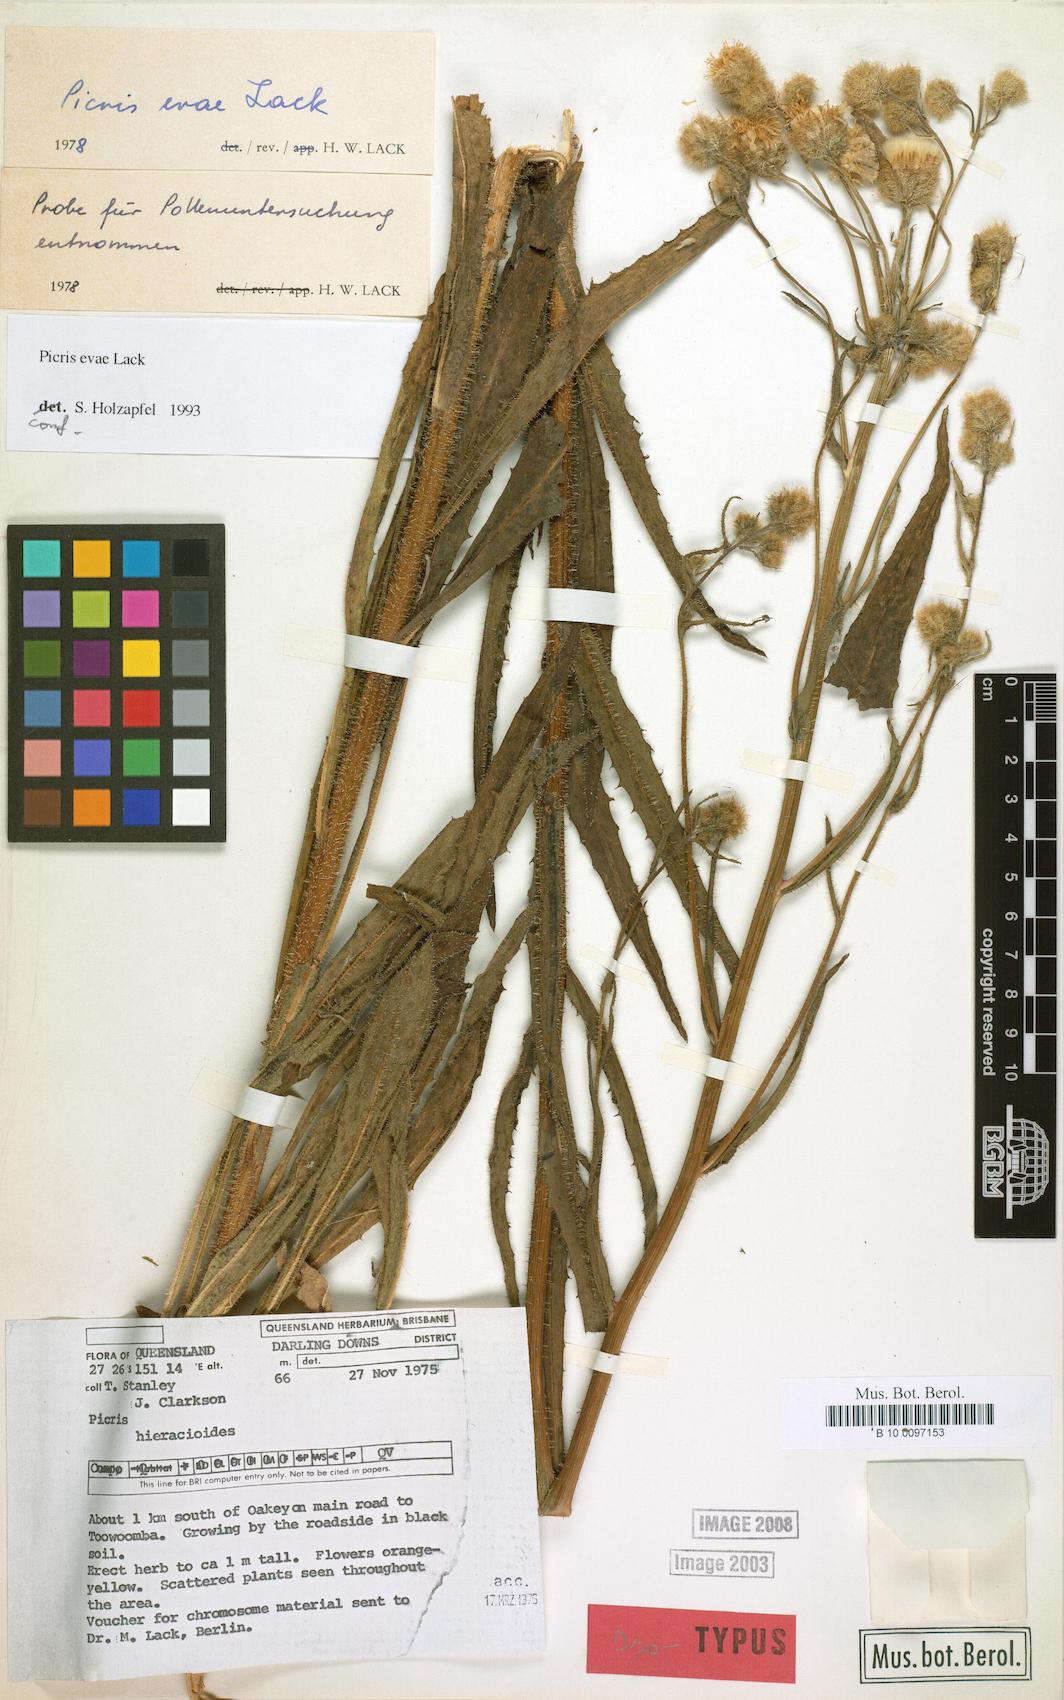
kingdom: Plantae
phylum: Tracheophyta
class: Magnoliopsida
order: Asterales
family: Asteraceae
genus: Picris
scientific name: Picris evae
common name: Hawkweed
